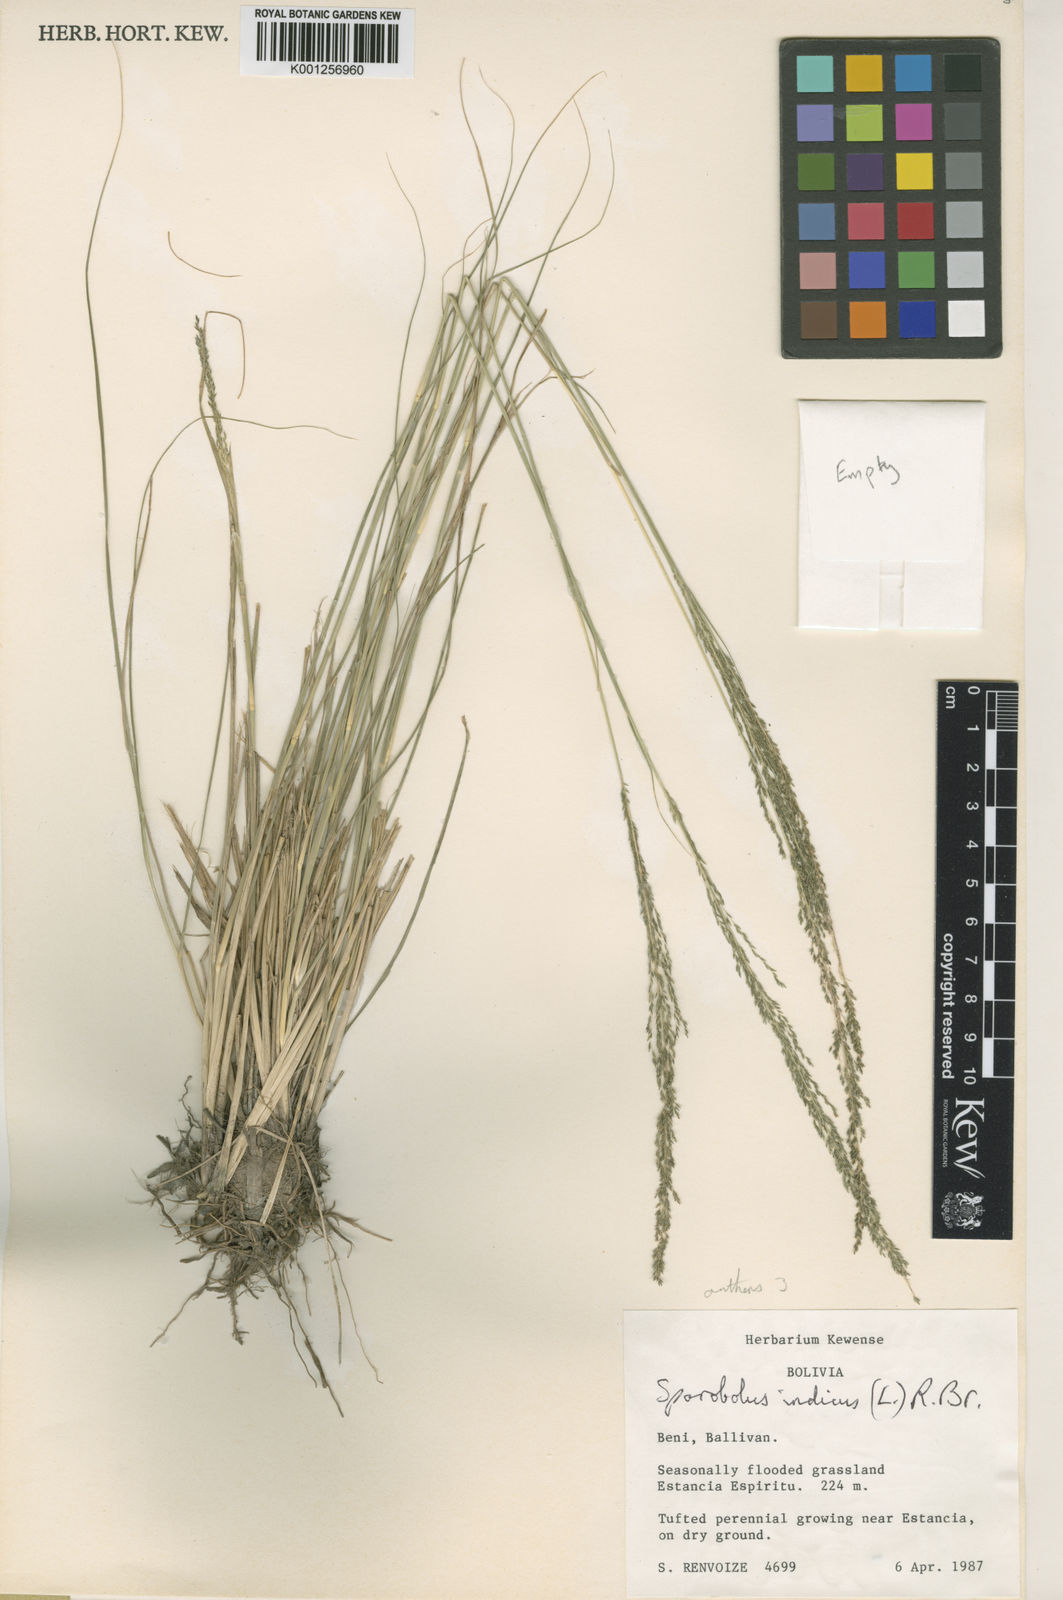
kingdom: Plantae
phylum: Tracheophyta
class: Liliopsida
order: Poales
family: Poaceae
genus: Sporobolus
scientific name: Sporobolus indicus
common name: Smut grass
